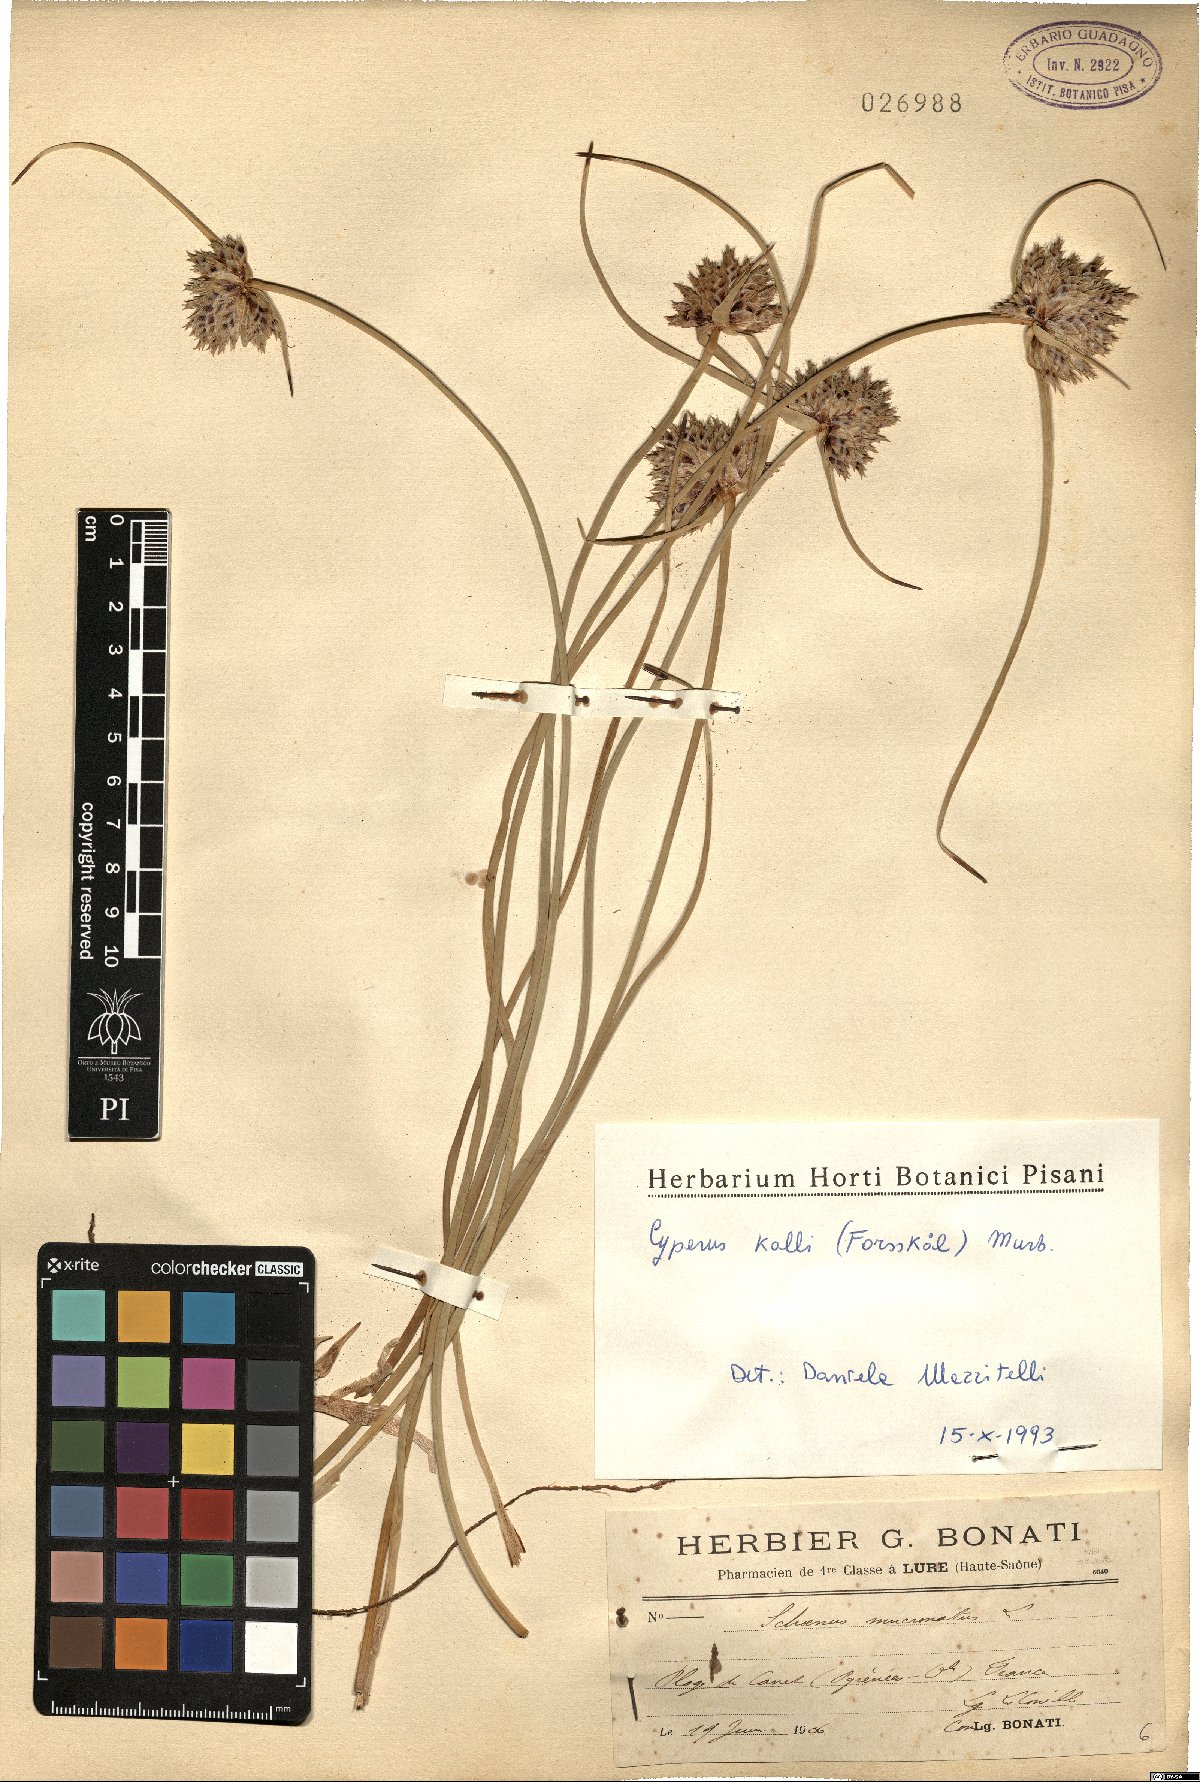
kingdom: Plantae
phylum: Tracheophyta
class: Liliopsida
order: Poales
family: Cyperaceae
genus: Cyperus
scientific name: Cyperus capitatus
